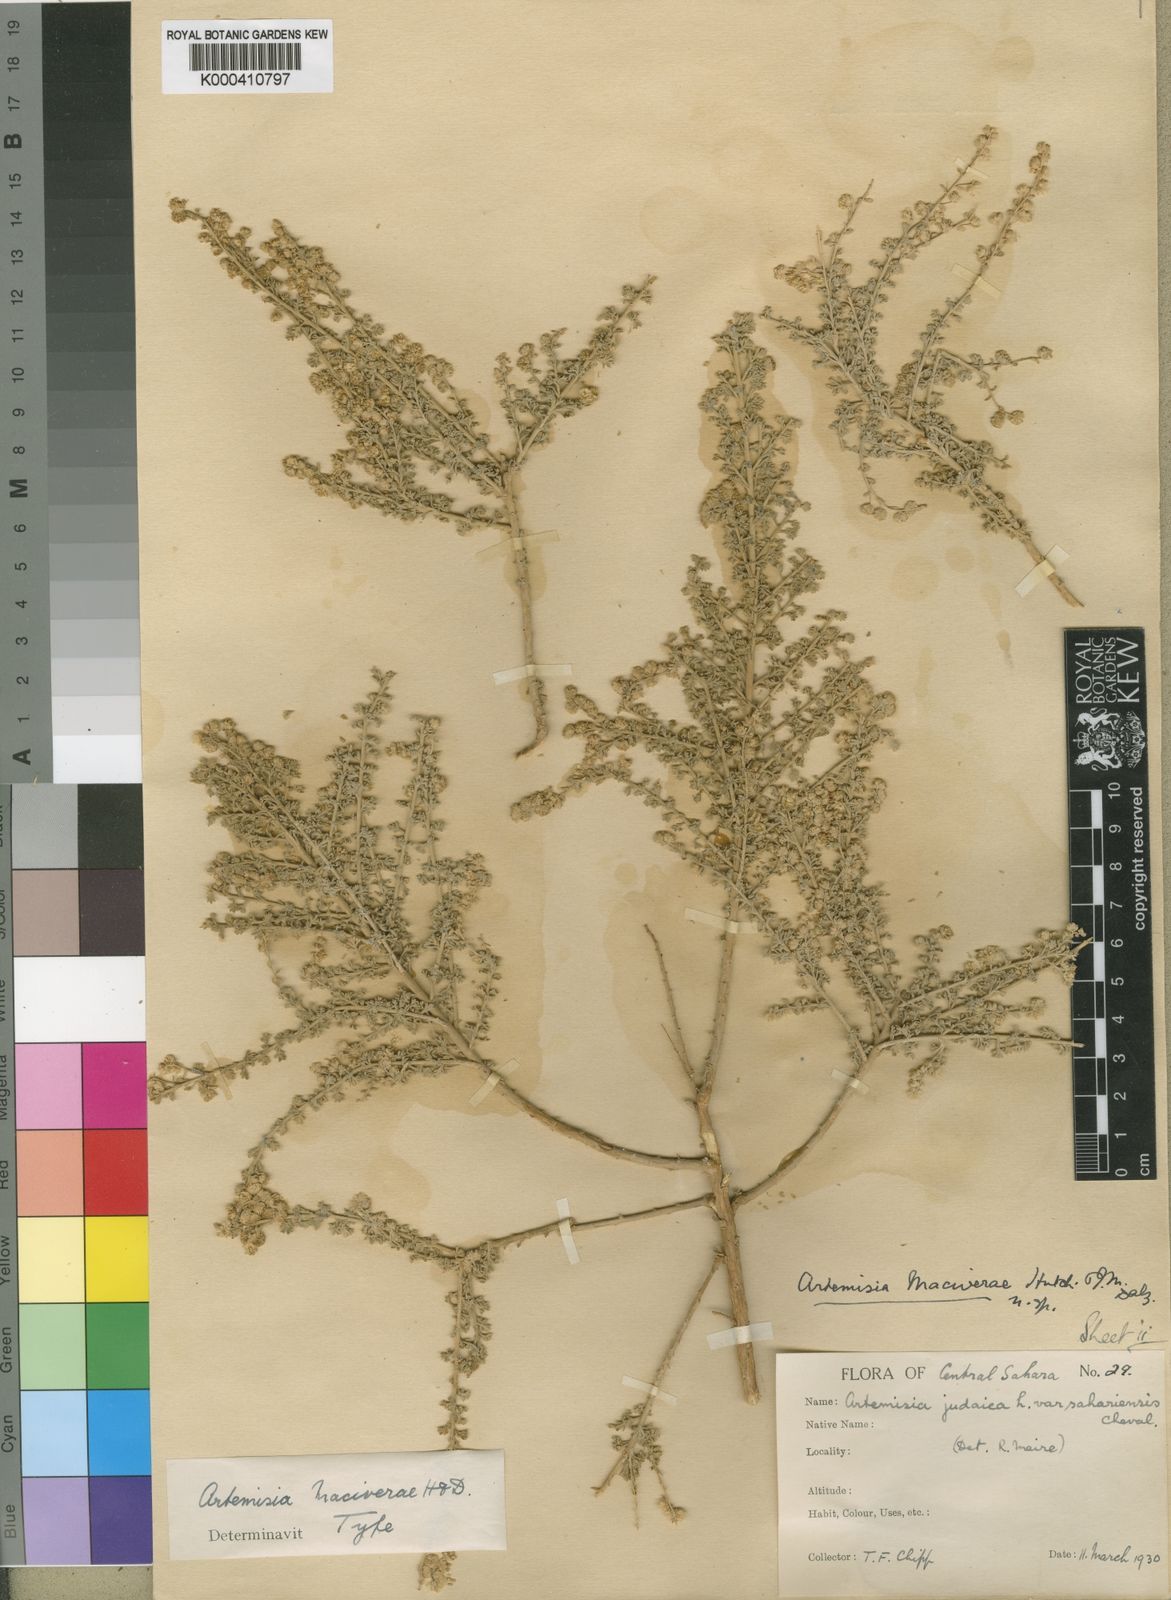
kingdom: Plantae
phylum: Tracheophyta
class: Magnoliopsida
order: Asterales
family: Asteraceae
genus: Artemisia
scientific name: Artemisia judaica
